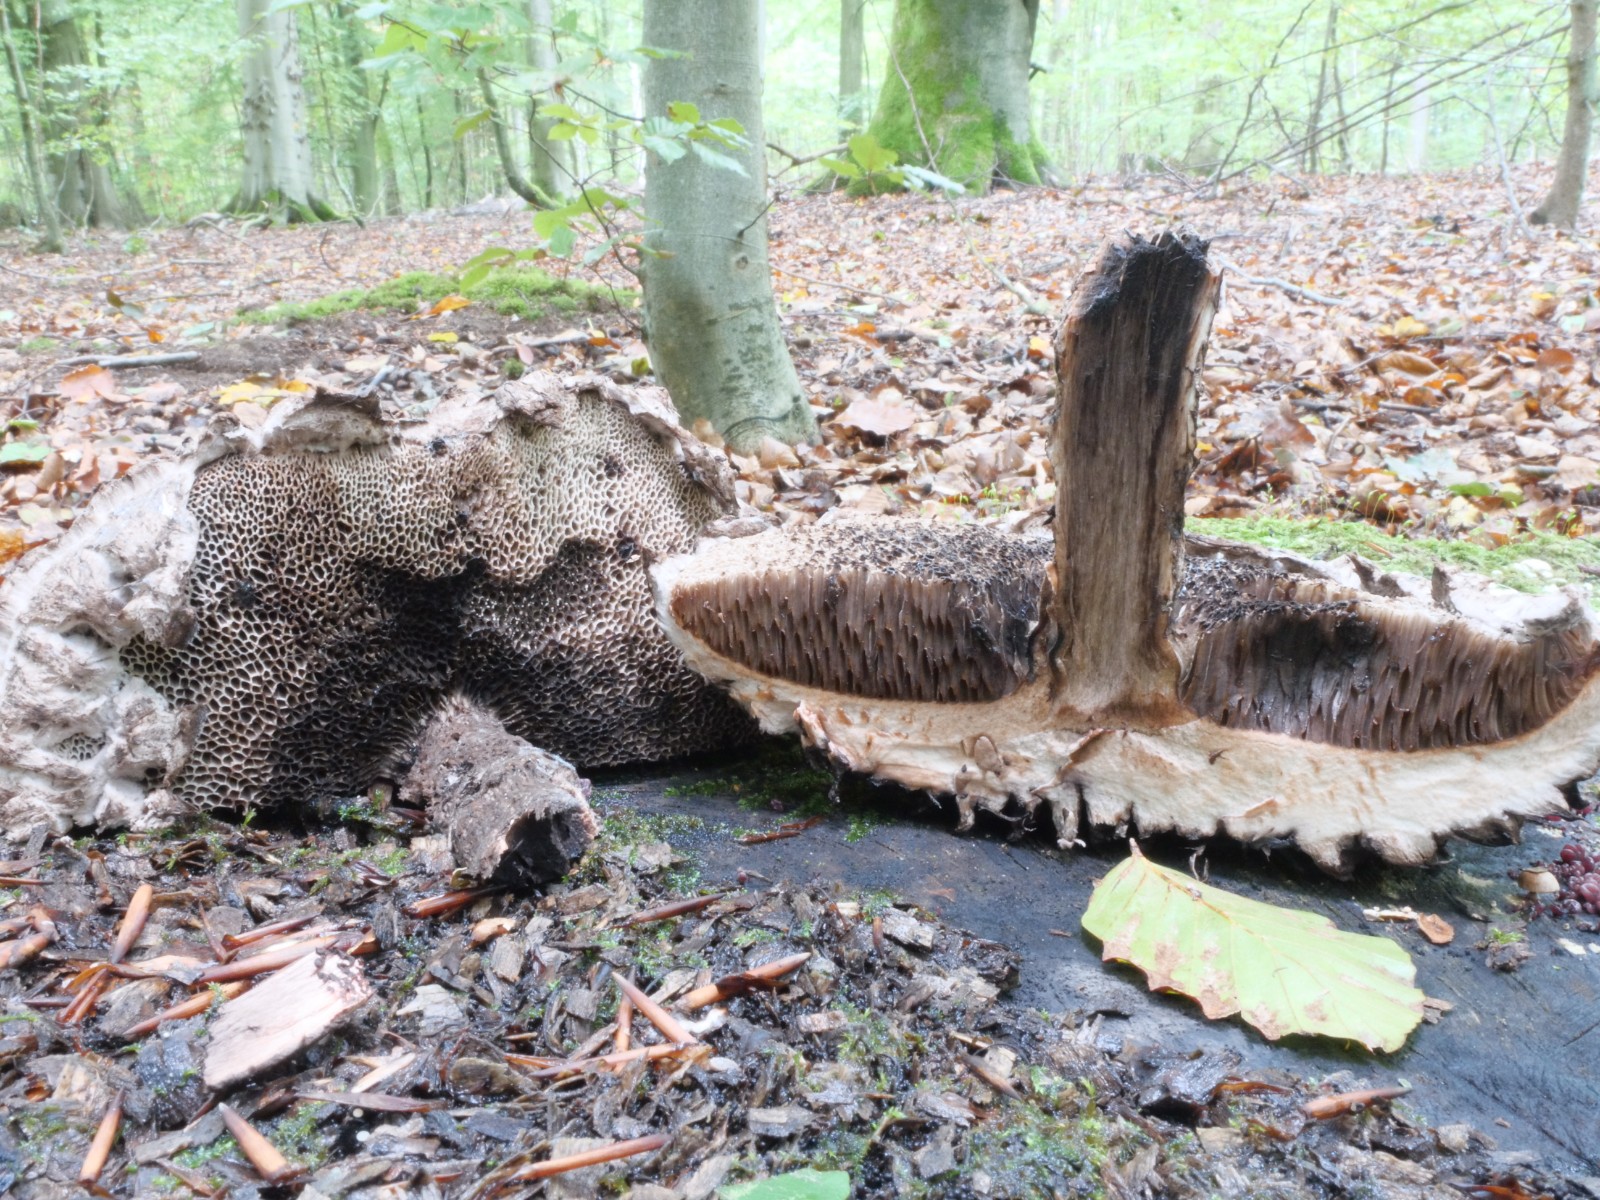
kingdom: Fungi
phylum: Basidiomycota
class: Agaricomycetes
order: Boletales
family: Boletaceae
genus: Strobilomyces
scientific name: Strobilomyces strobilaceus
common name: koglerørhat
